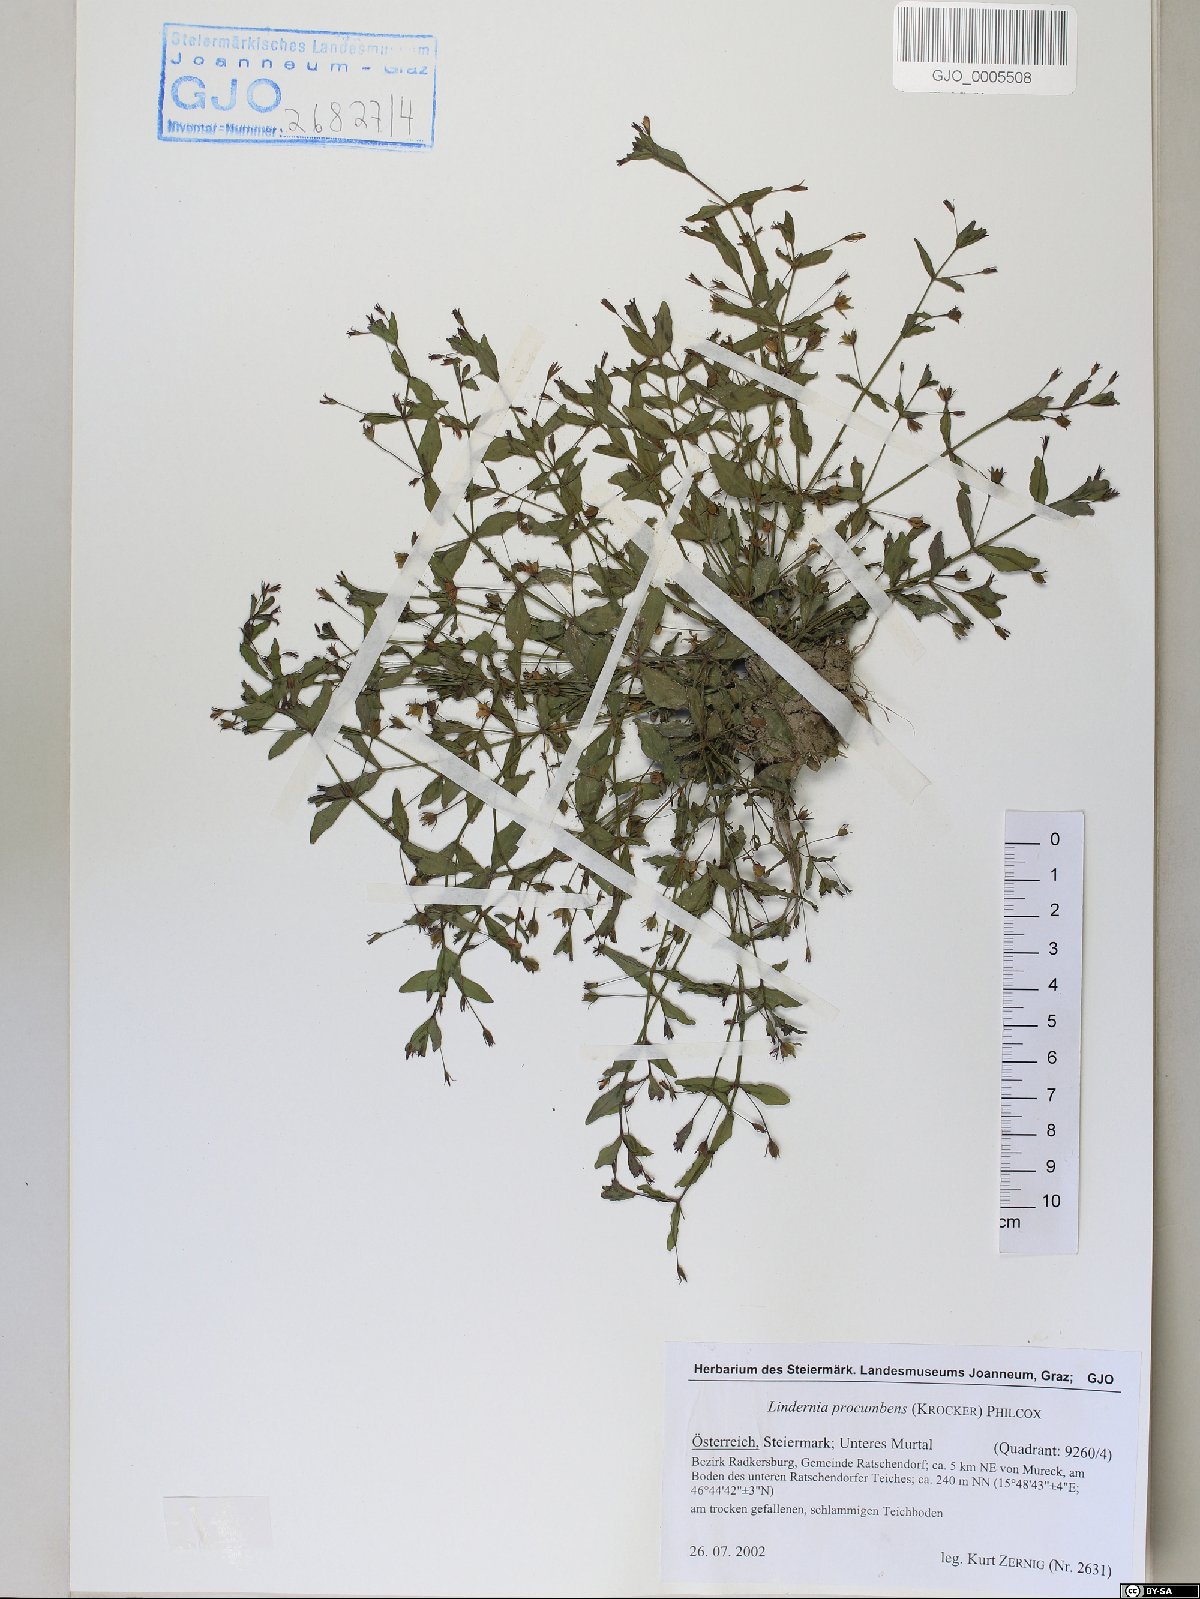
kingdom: Plantae
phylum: Tracheophyta
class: Magnoliopsida
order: Lamiales
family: Linderniaceae
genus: Lindernia
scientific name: Lindernia procumbens
